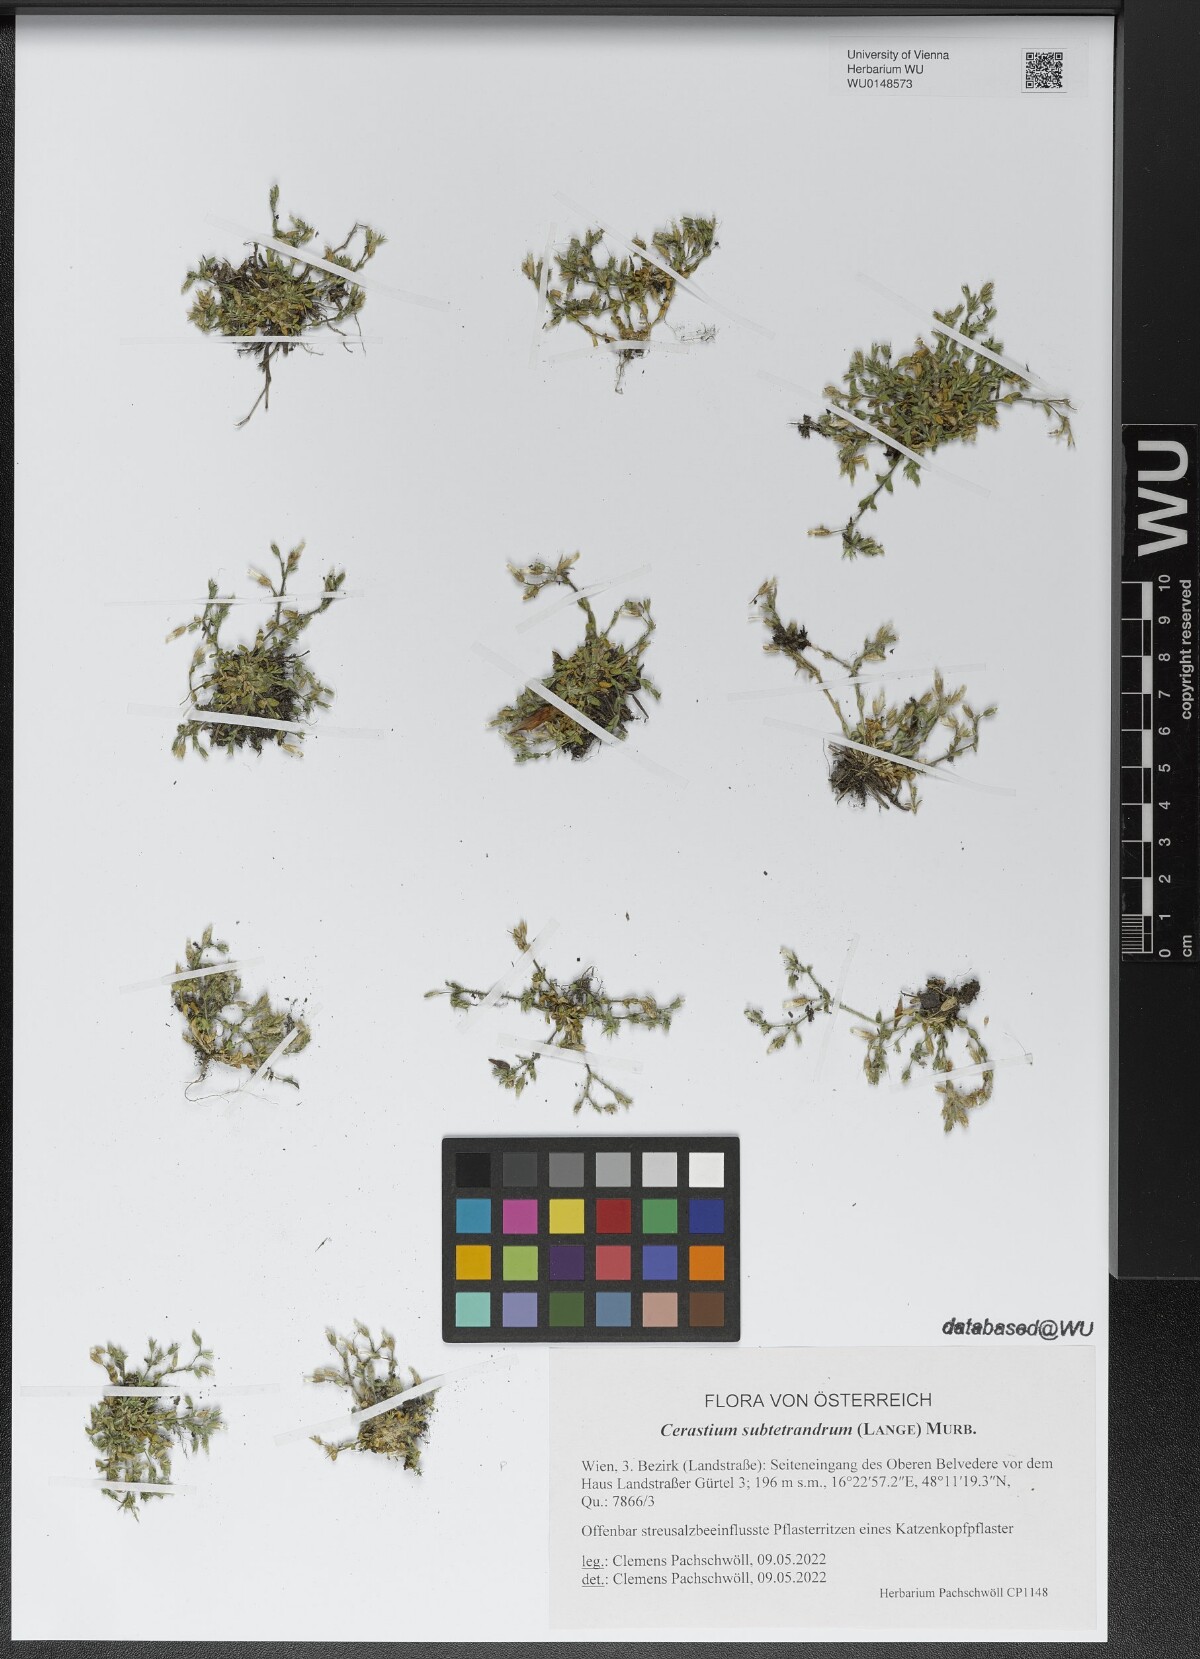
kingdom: Plantae
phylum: Tracheophyta
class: Magnoliopsida
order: Caryophyllales
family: Caryophyllaceae
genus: Cerastium
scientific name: Cerastium subtetrandrum
